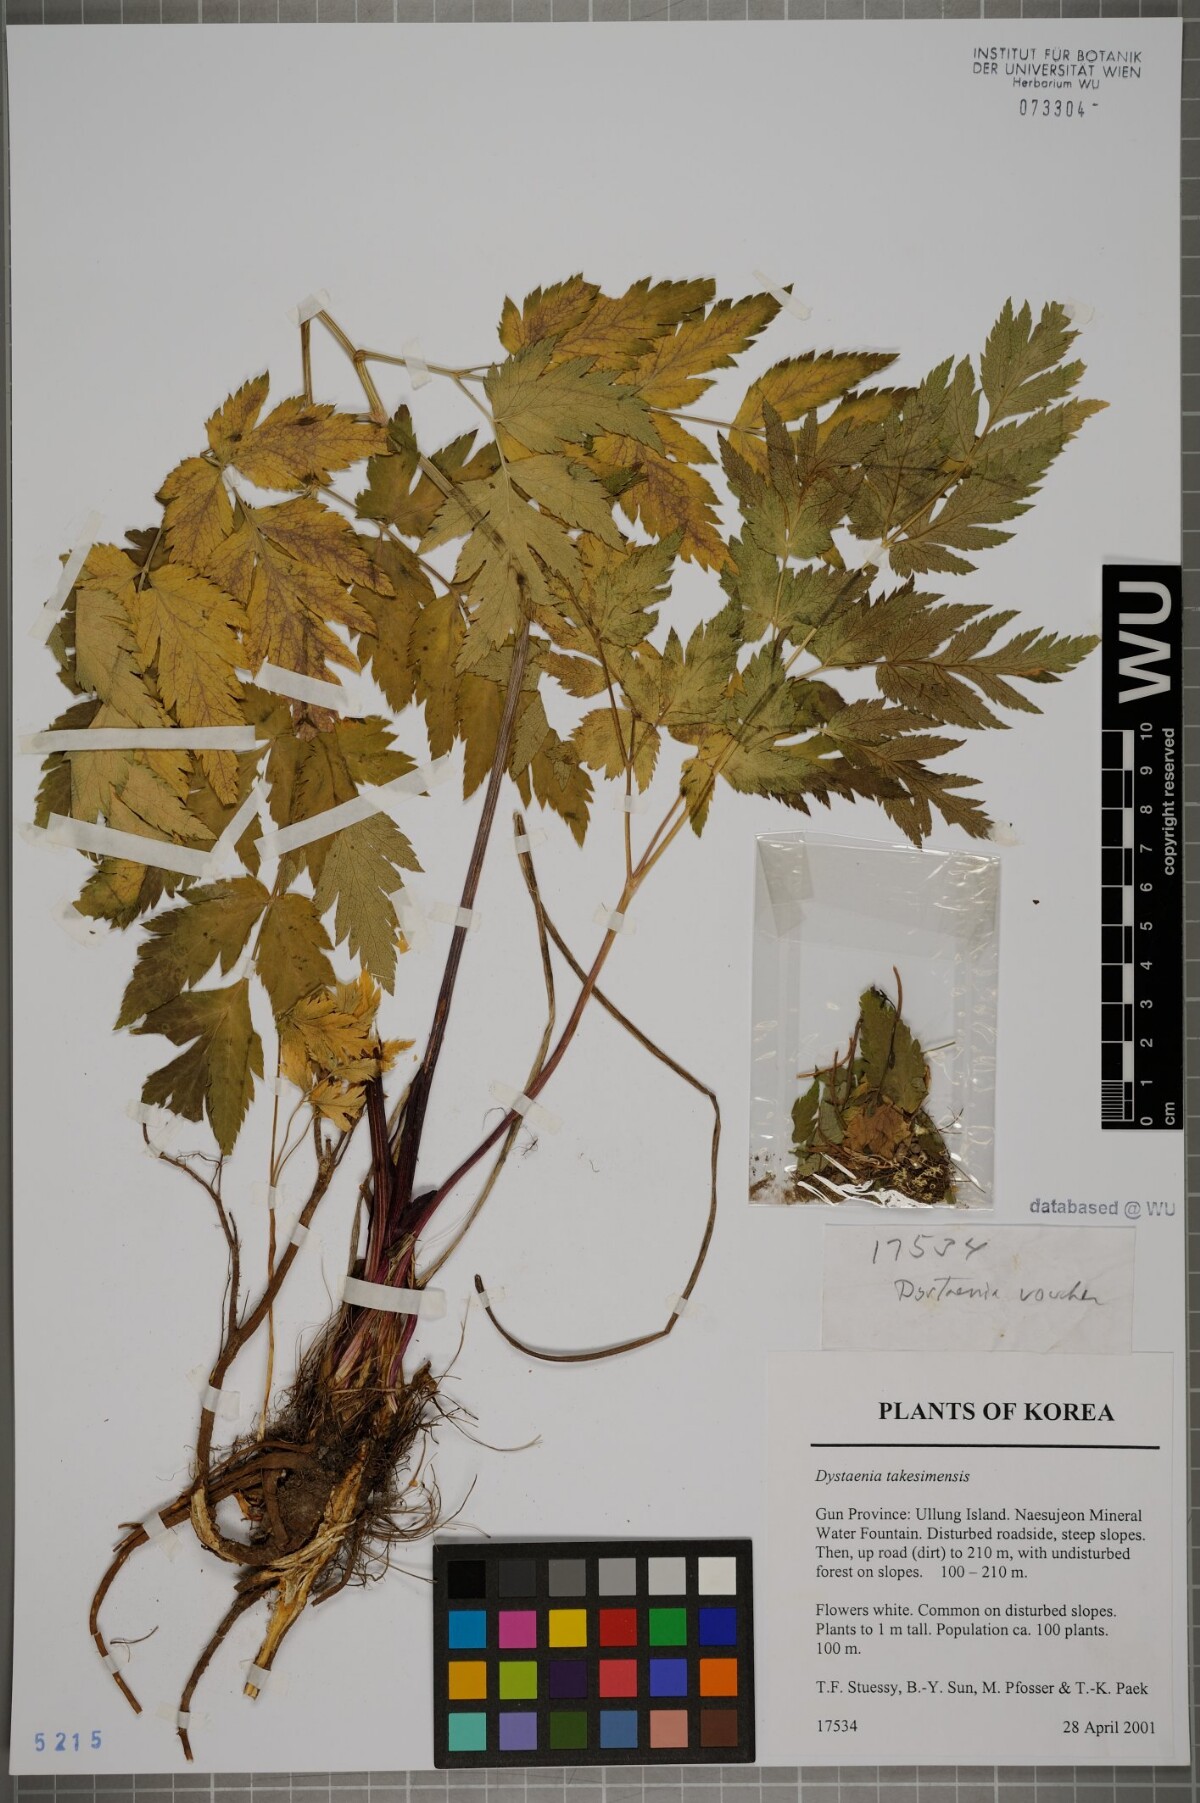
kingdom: Plantae
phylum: Tracheophyta
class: Magnoliopsida
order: Apiales
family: Apiaceae
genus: Dystaenia
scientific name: Dystaenia takeshimana
